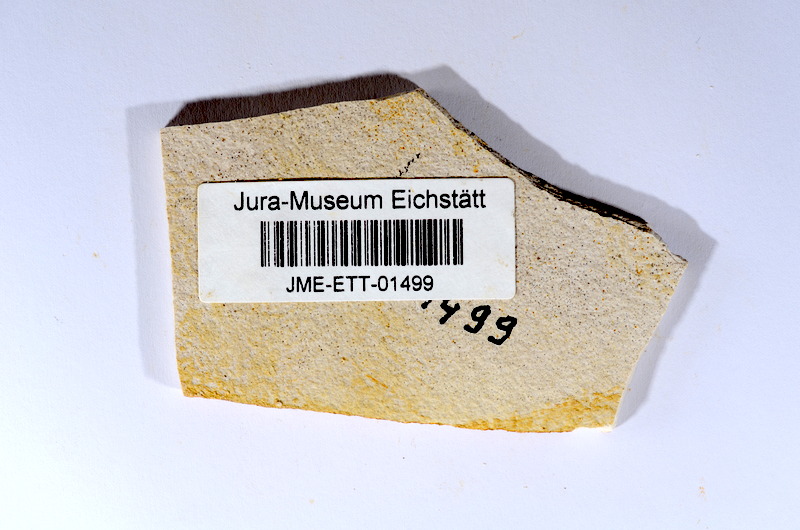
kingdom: Animalia
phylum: Chordata
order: Salmoniformes
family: Orthogonikleithridae
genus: Orthogonikleithrus
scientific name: Orthogonikleithrus hoelli
